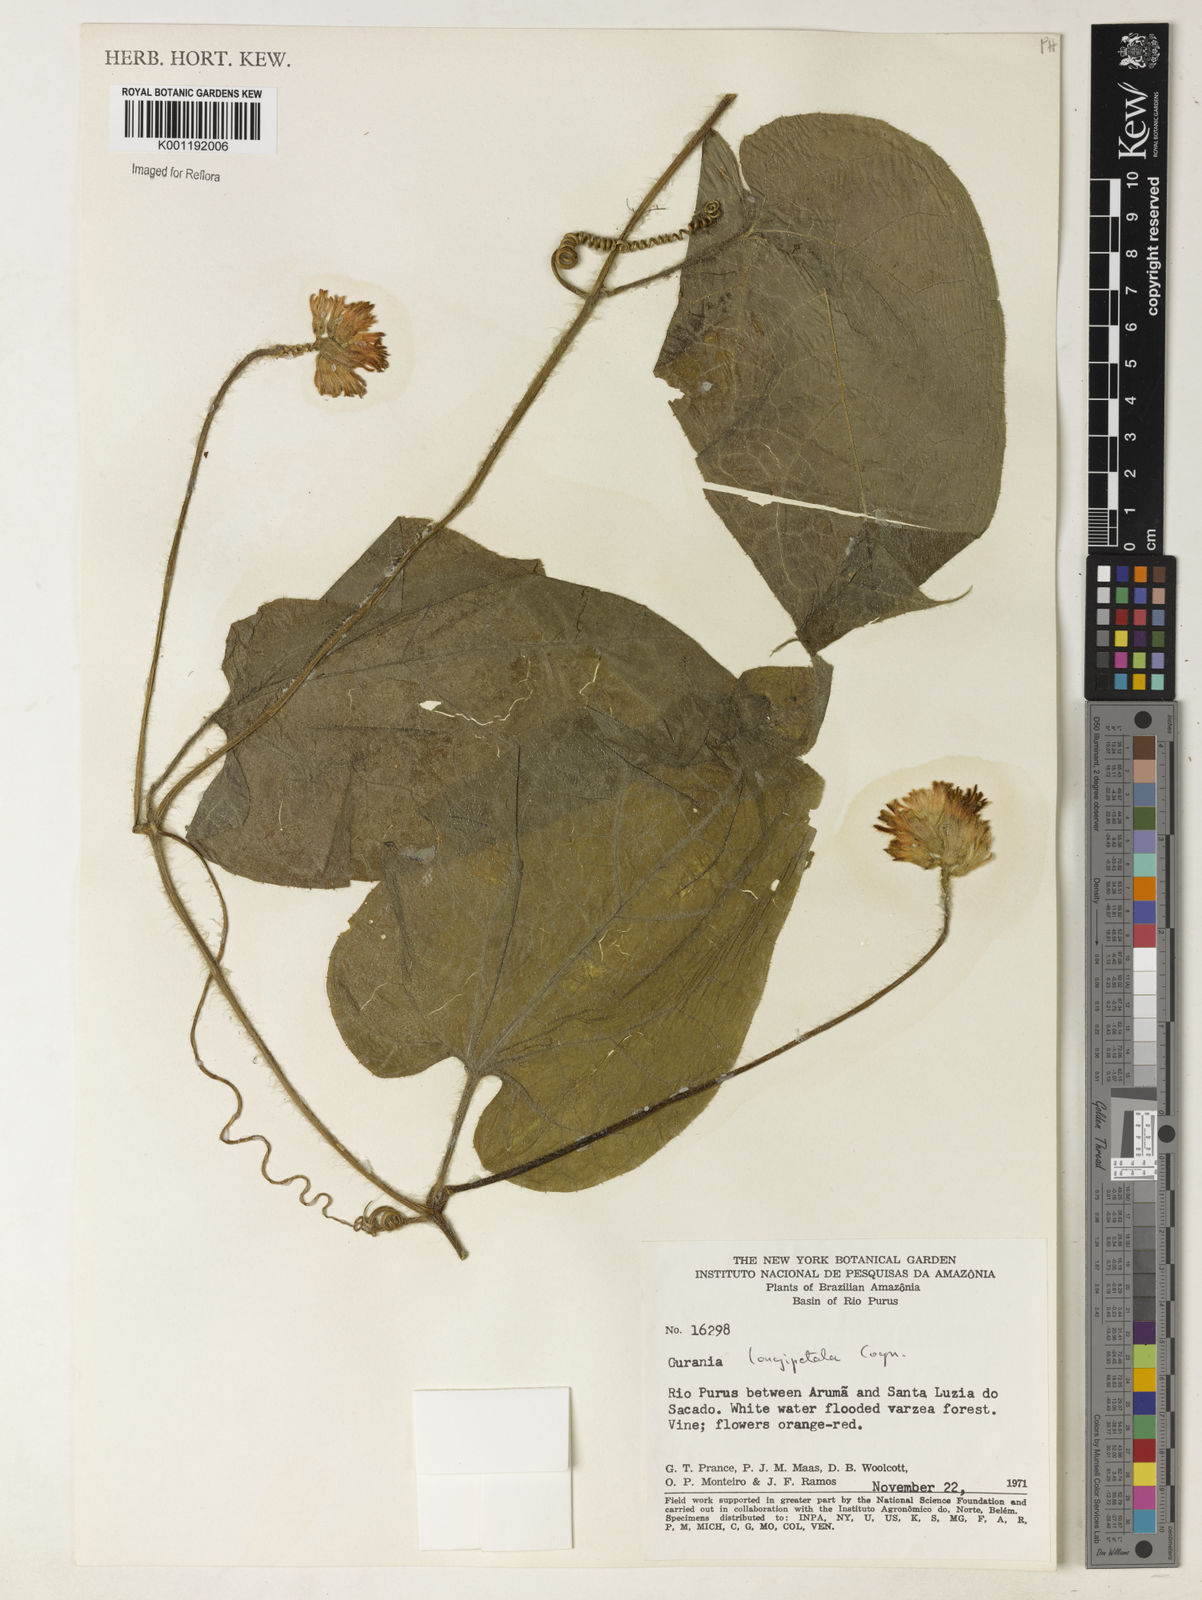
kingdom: Plantae
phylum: Tracheophyta
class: Magnoliopsida
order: Cucurbitales
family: Cucurbitaceae
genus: Gurania
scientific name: Gurania eriantha
